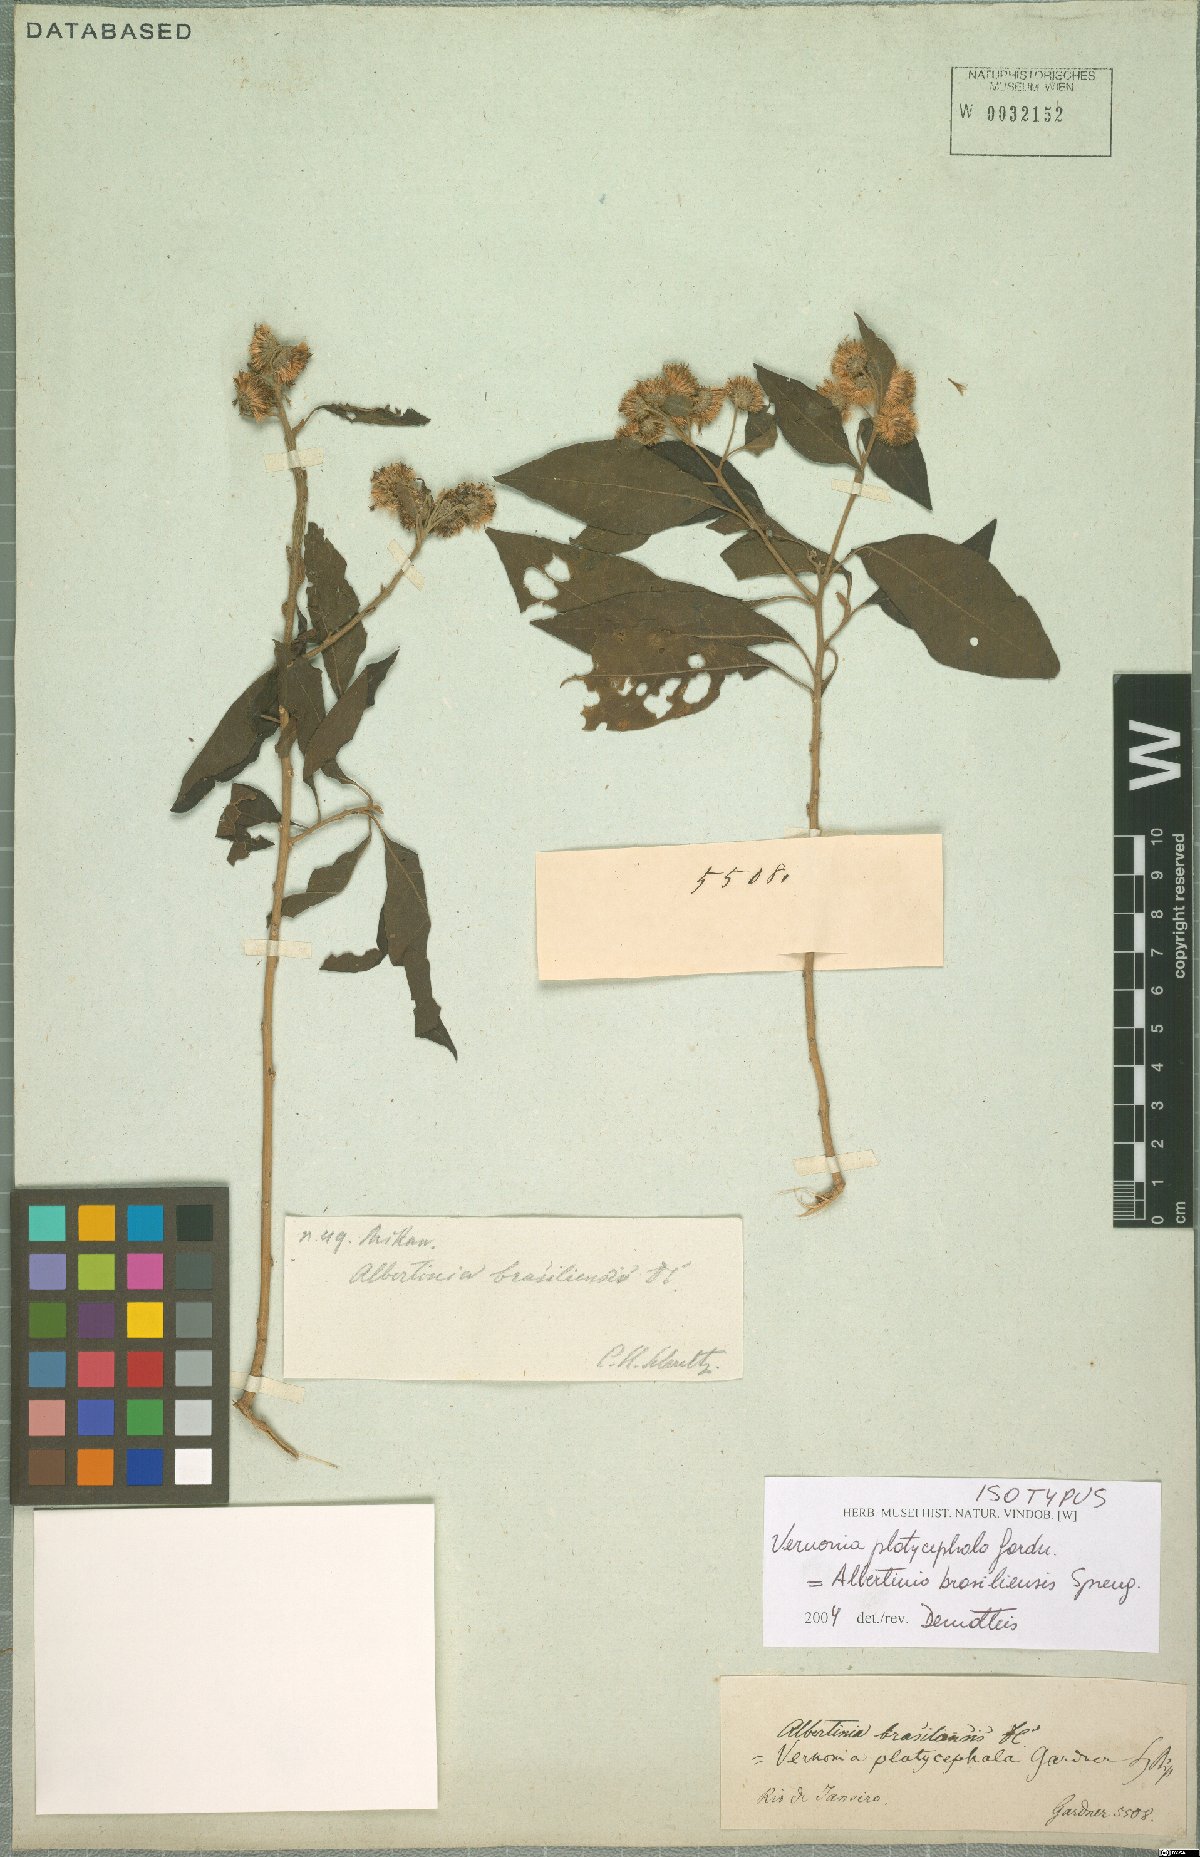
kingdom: Plantae
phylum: Tracheophyta
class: Magnoliopsida
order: Asterales
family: Asteraceae
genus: Albertinia
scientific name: Albertinia brasiliensis
